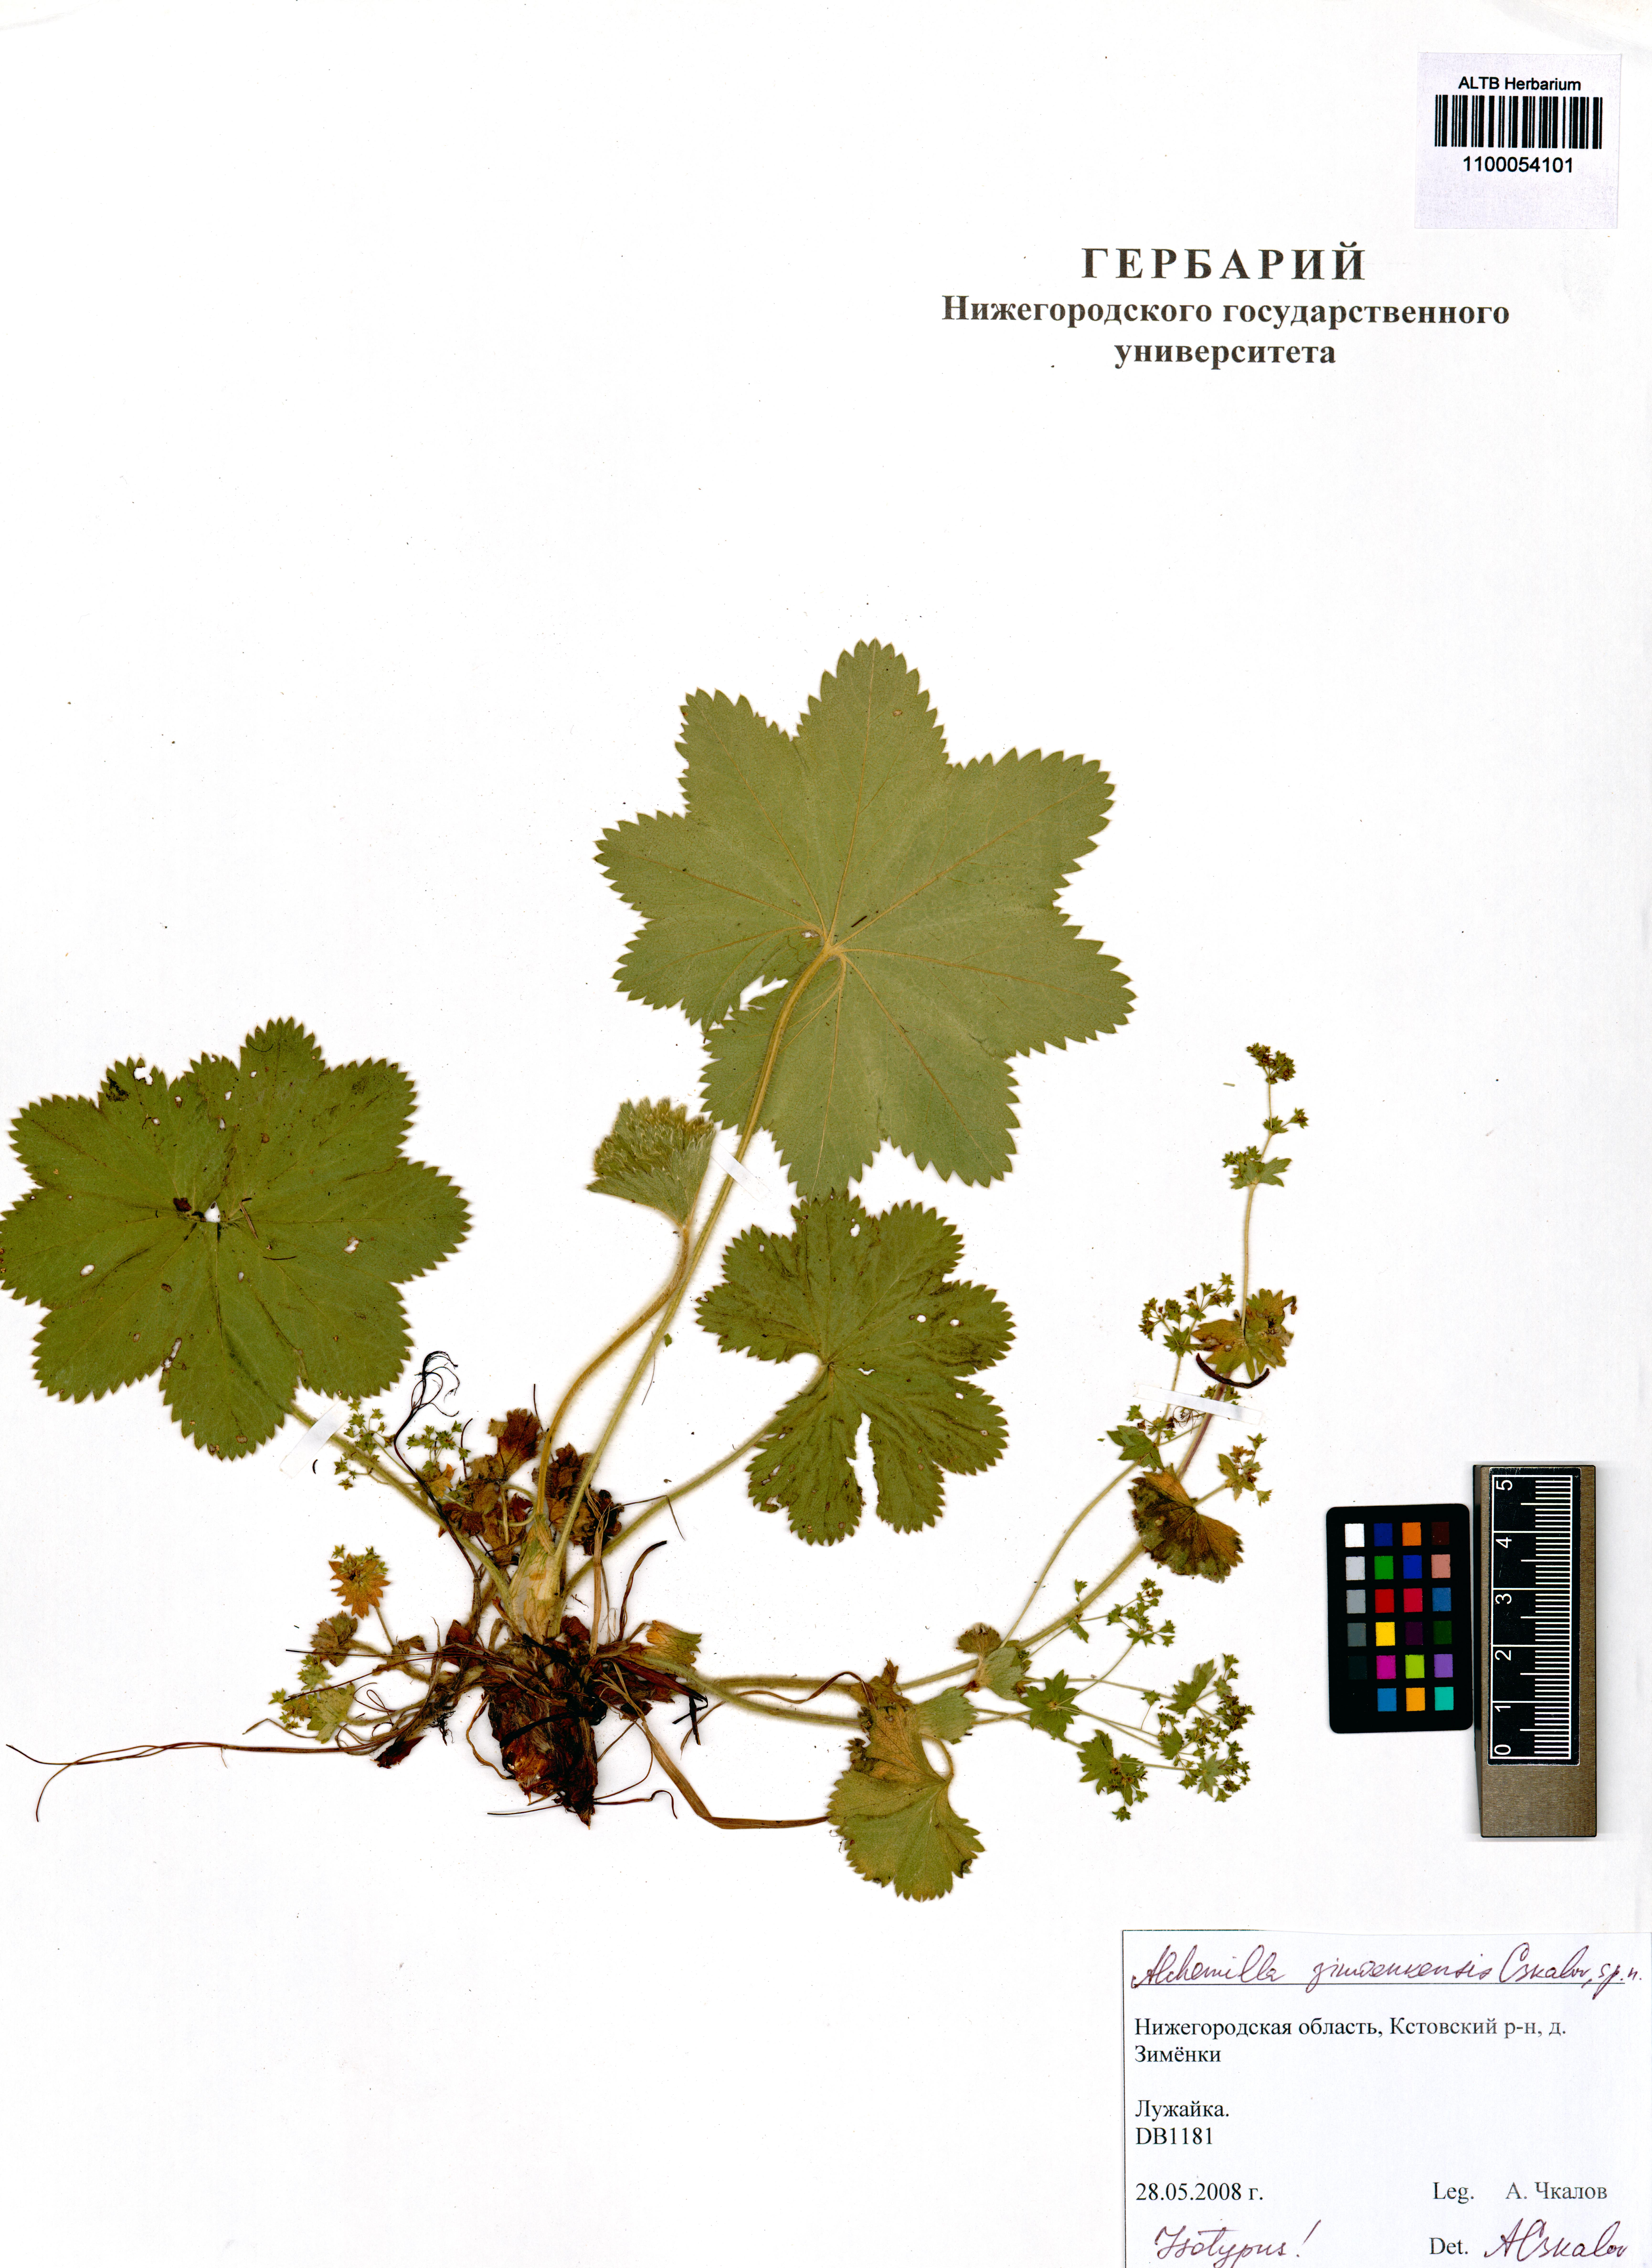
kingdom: Plantae
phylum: Tracheophyta
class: Magnoliopsida
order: Rosales
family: Rosaceae
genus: Alchemilla
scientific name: Alchemilla zimoenkensis
